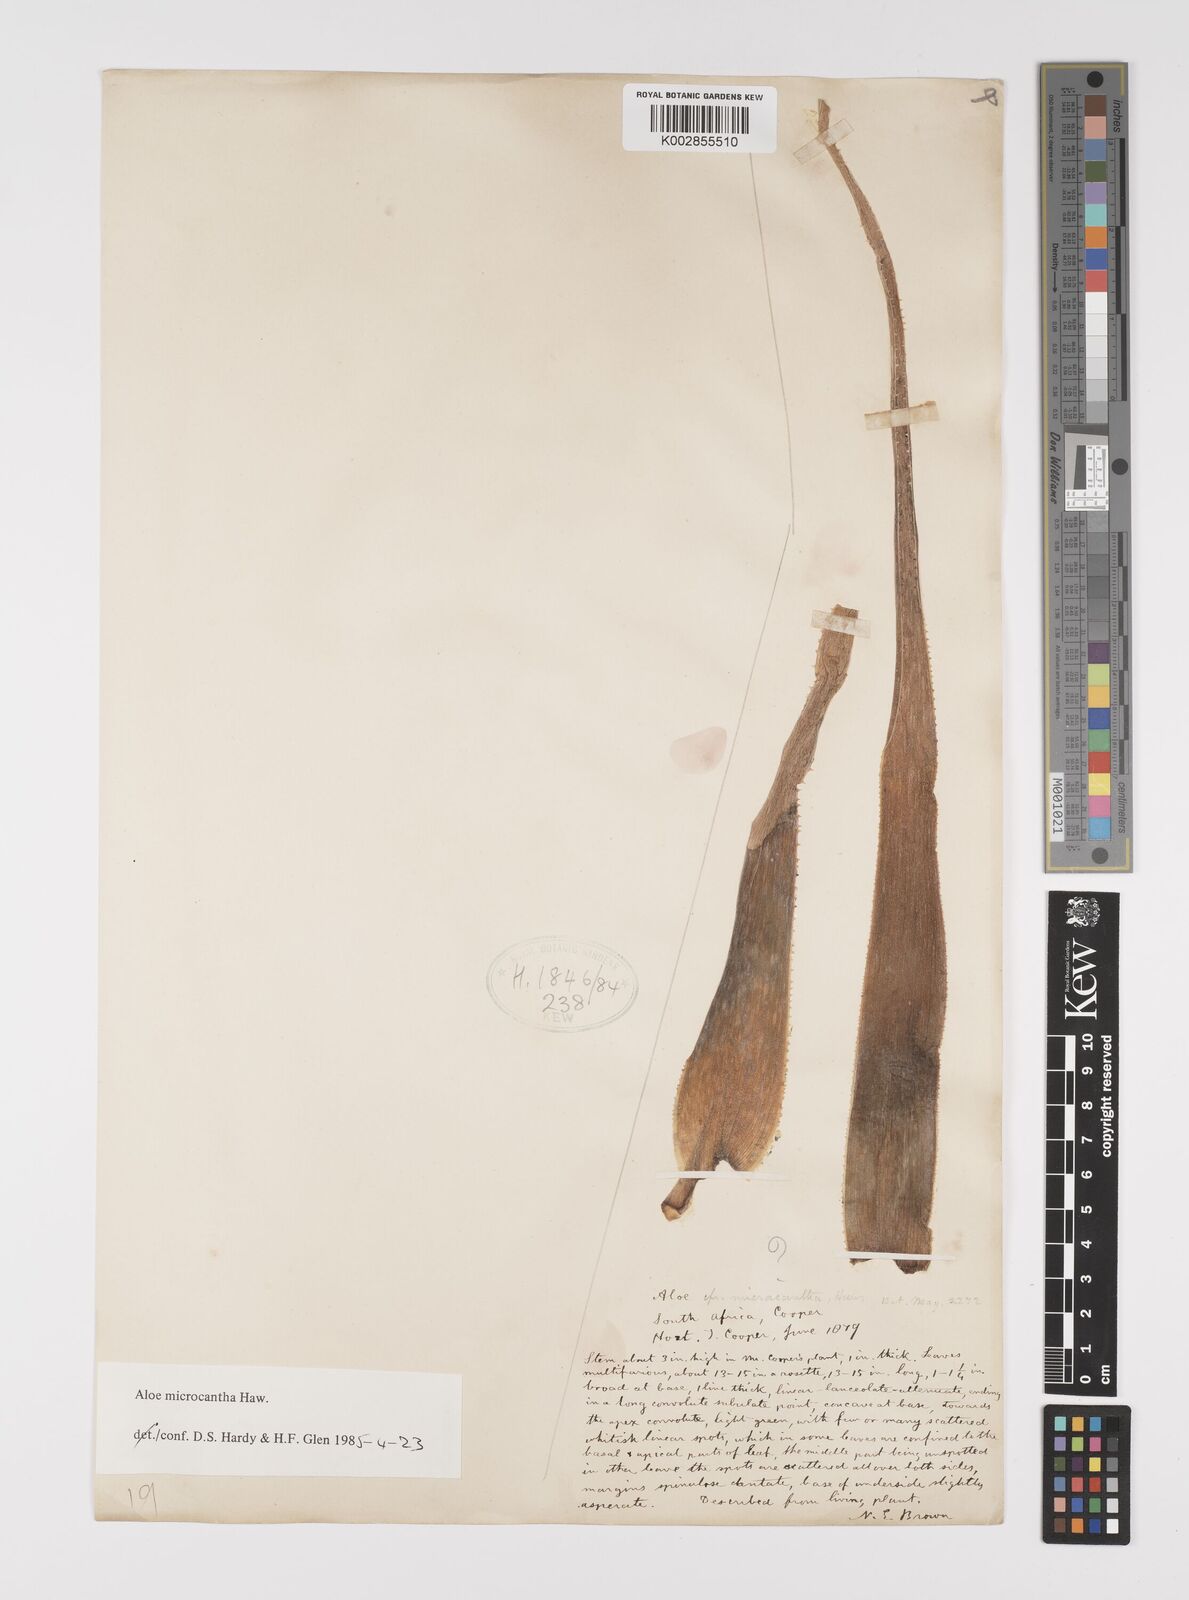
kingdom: Plantae
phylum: Tracheophyta
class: Liliopsida
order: Asparagales
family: Asphodelaceae
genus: Aloe
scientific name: Aloe micracantha
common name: Fynbos grass aloe
